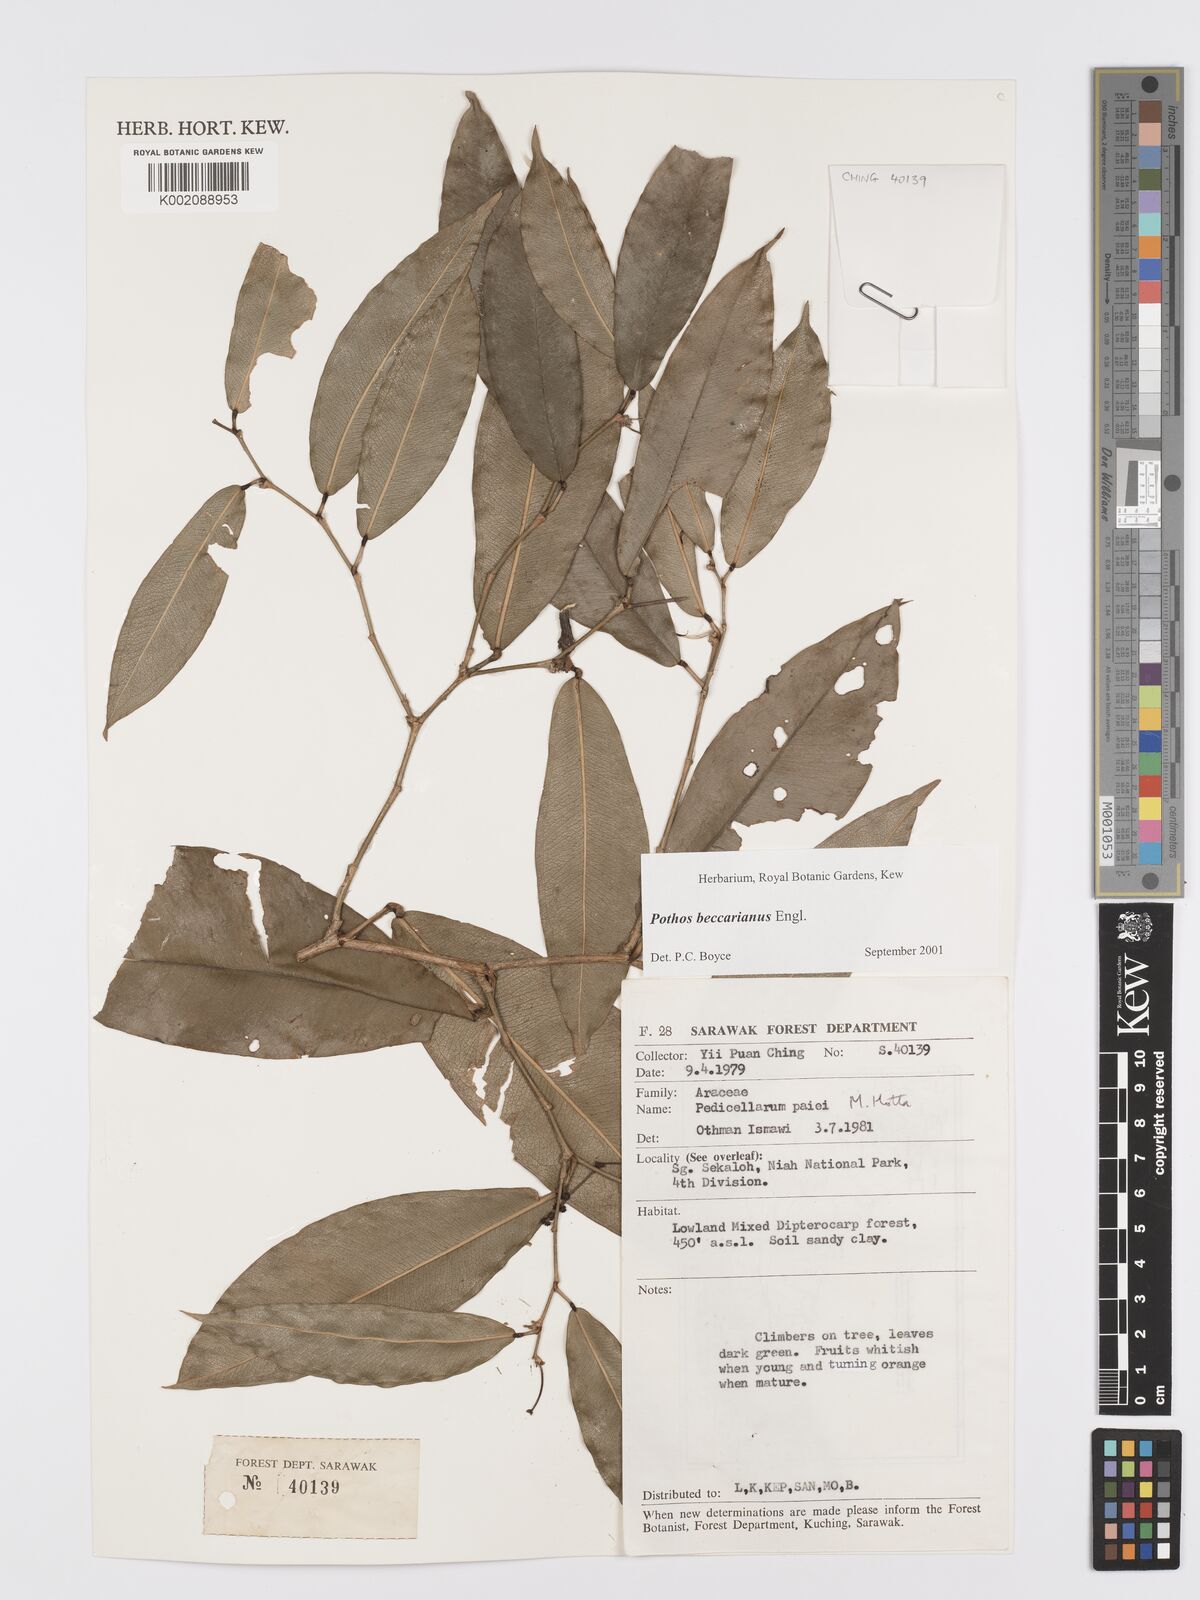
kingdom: Plantae
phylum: Tracheophyta
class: Liliopsida
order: Alismatales
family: Araceae
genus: Pothos
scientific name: Pothos beccarianus
